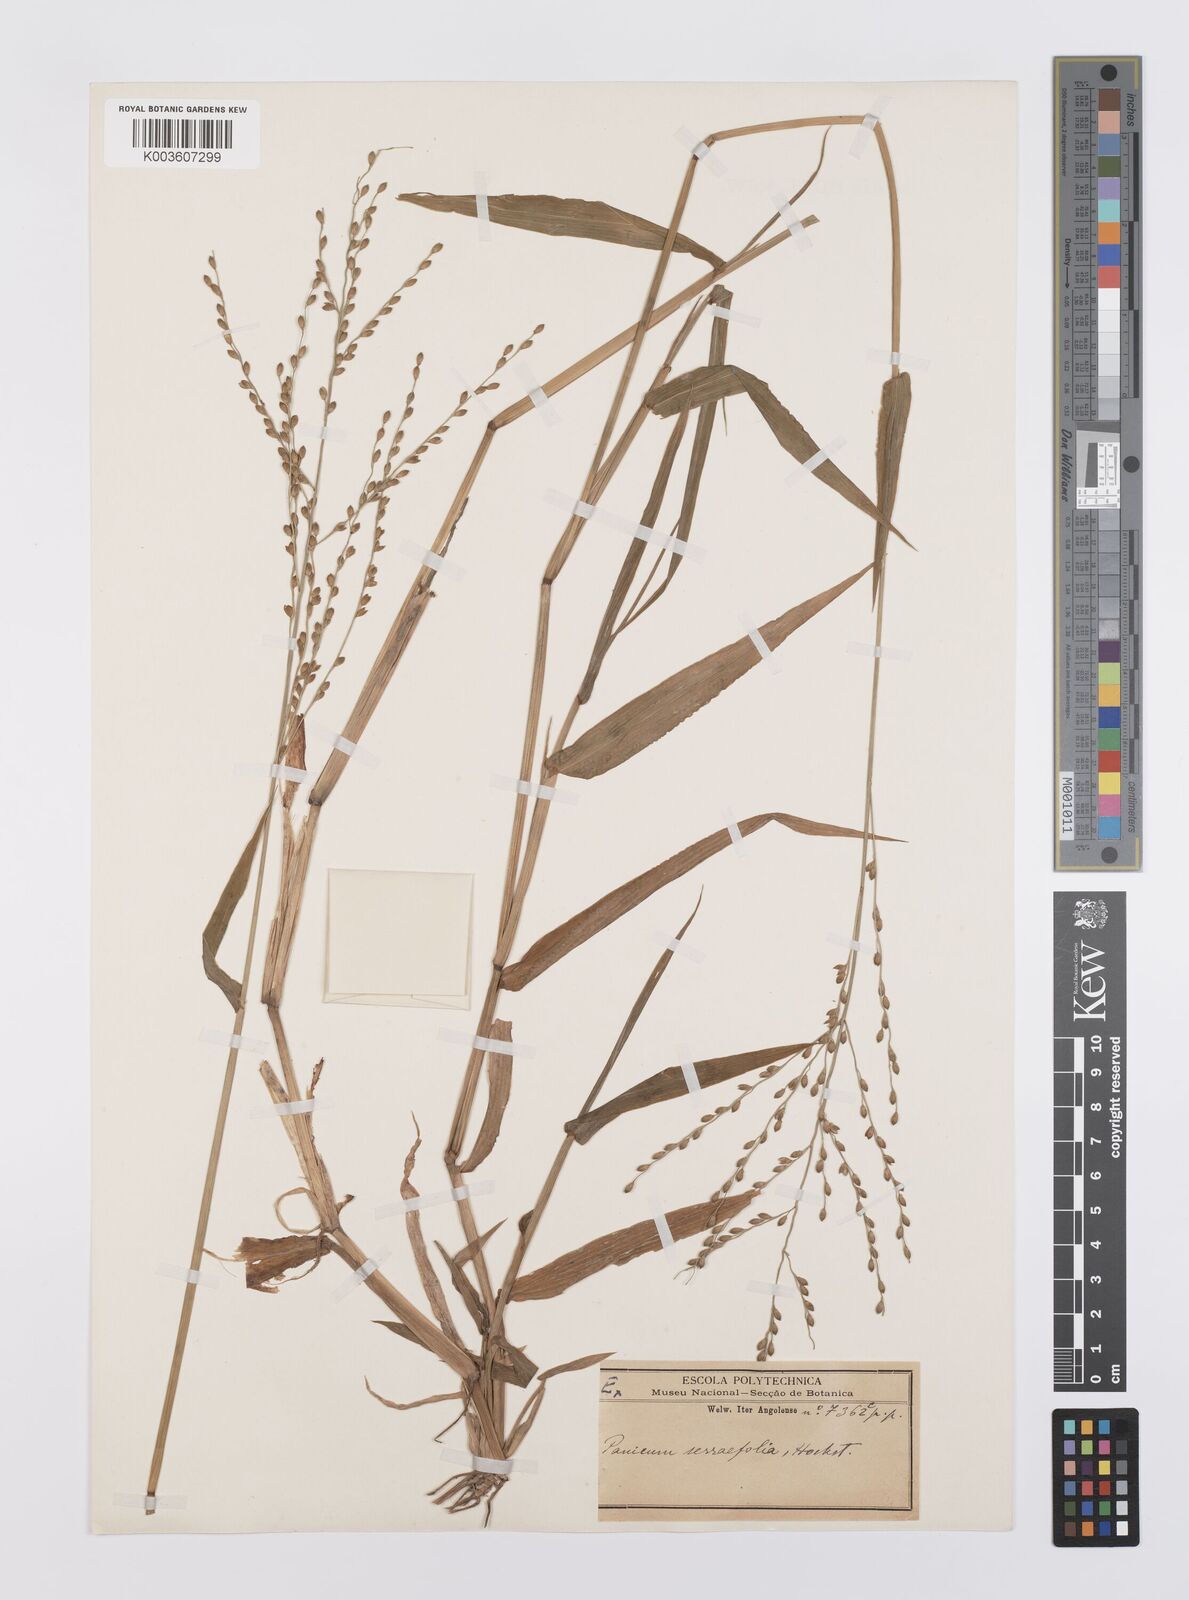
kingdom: Plantae
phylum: Tracheophyta
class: Liliopsida
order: Poales
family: Poaceae
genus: Urochloa
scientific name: Urochloa Brachiaria grossa
